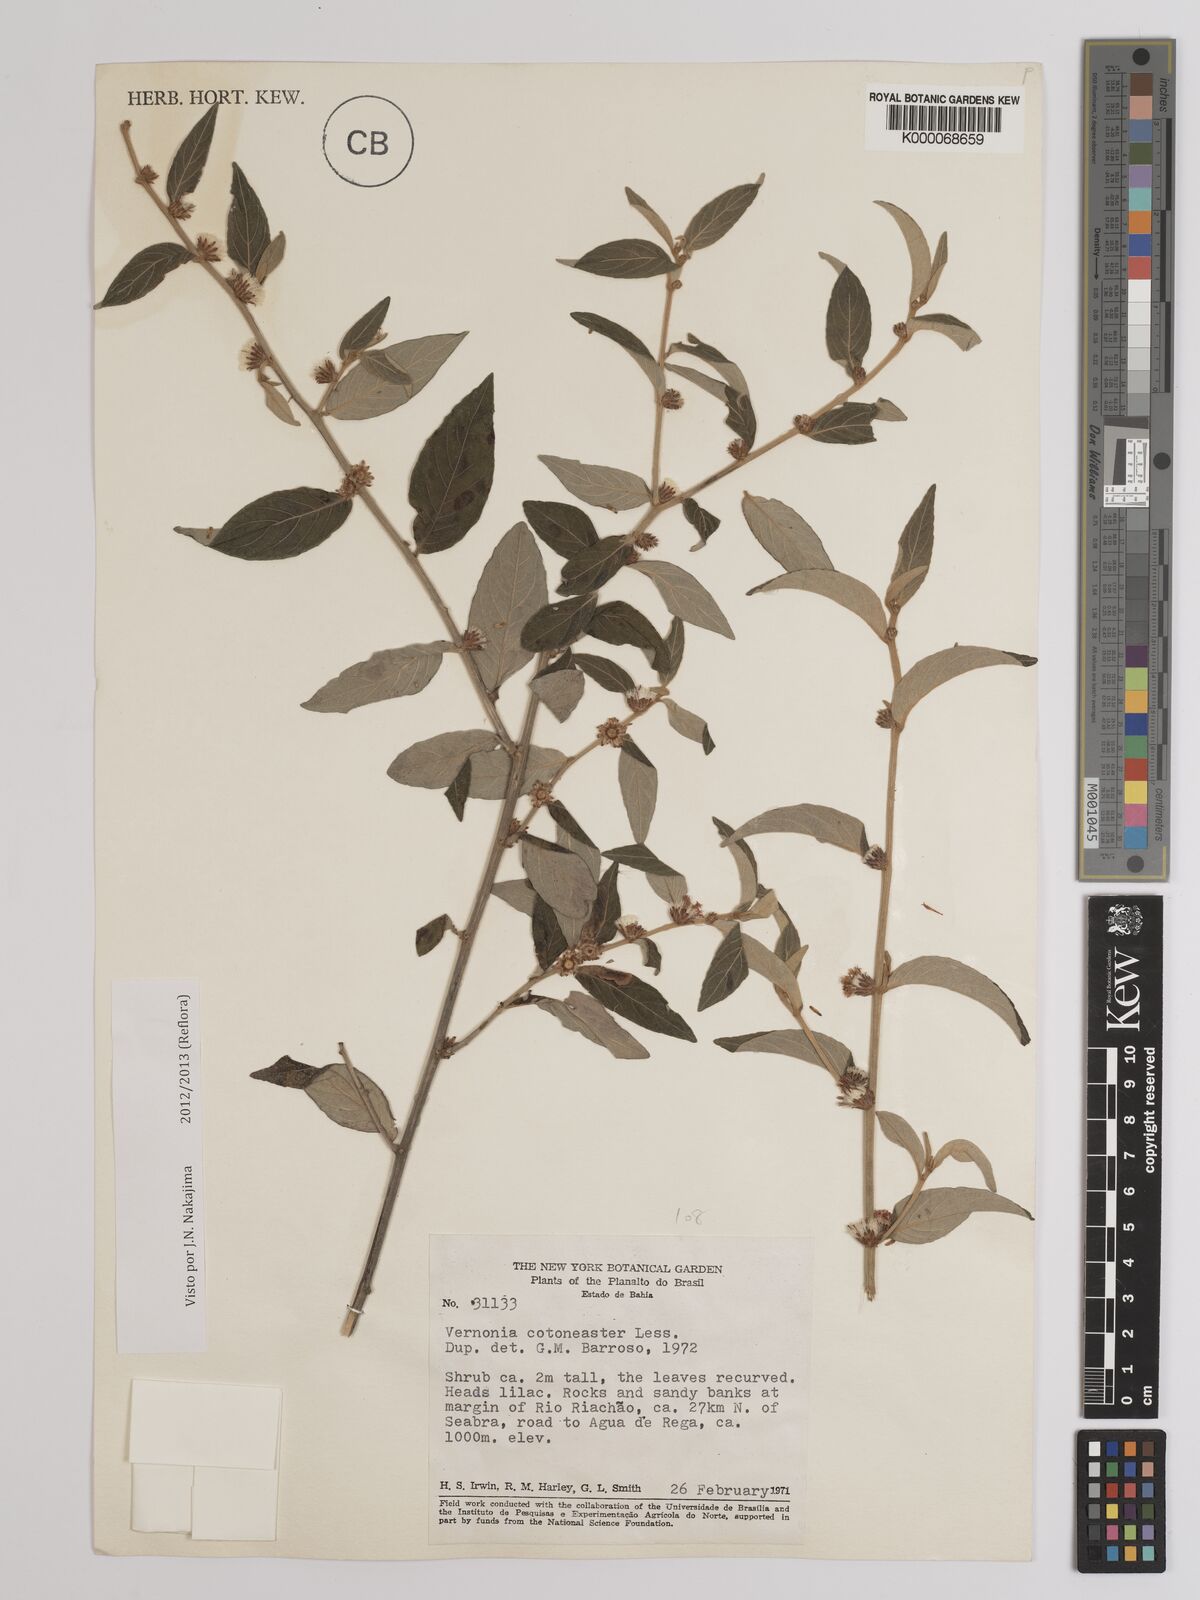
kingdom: Plantae
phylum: Tracheophyta
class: Magnoliopsida
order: Asterales
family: Asteraceae
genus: Lepidaploa
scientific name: Lepidaploa cotoneaster
